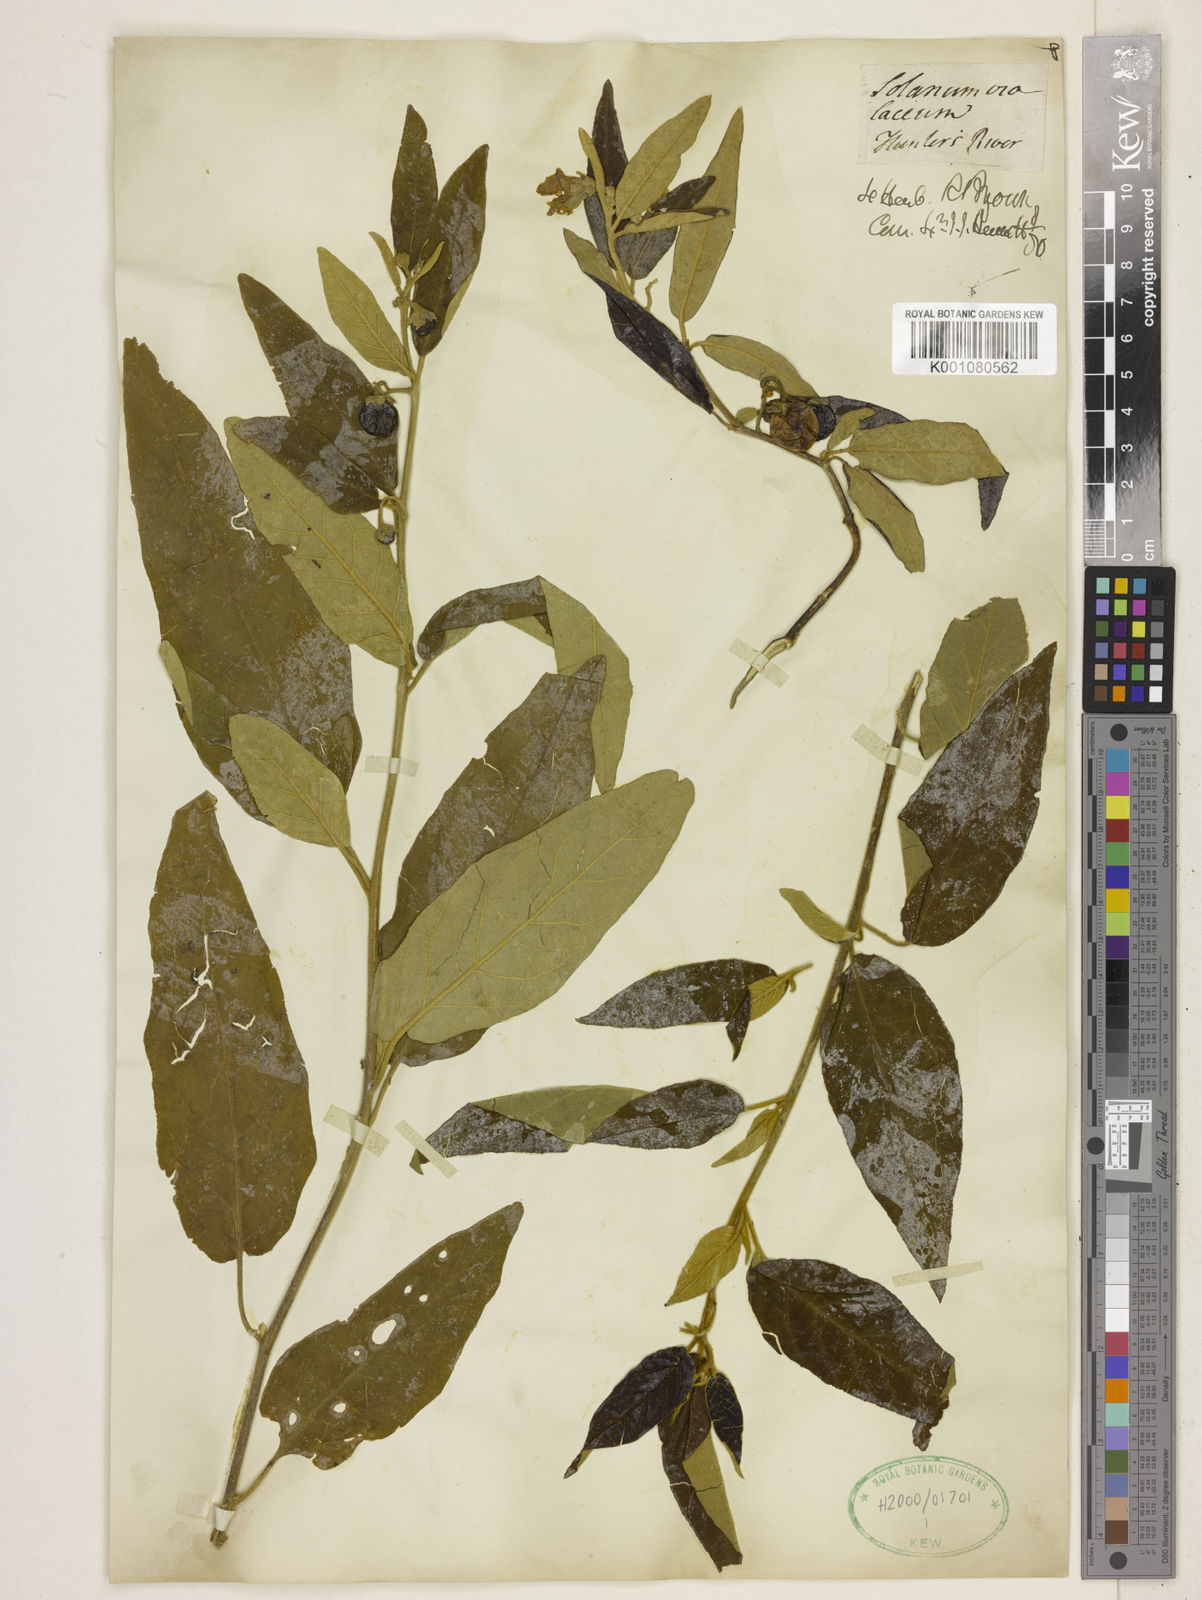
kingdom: Plantae
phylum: Tracheophyta
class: Magnoliopsida
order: Solanales
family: Solanaceae
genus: Solanum
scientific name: Solanum hasslerianum
